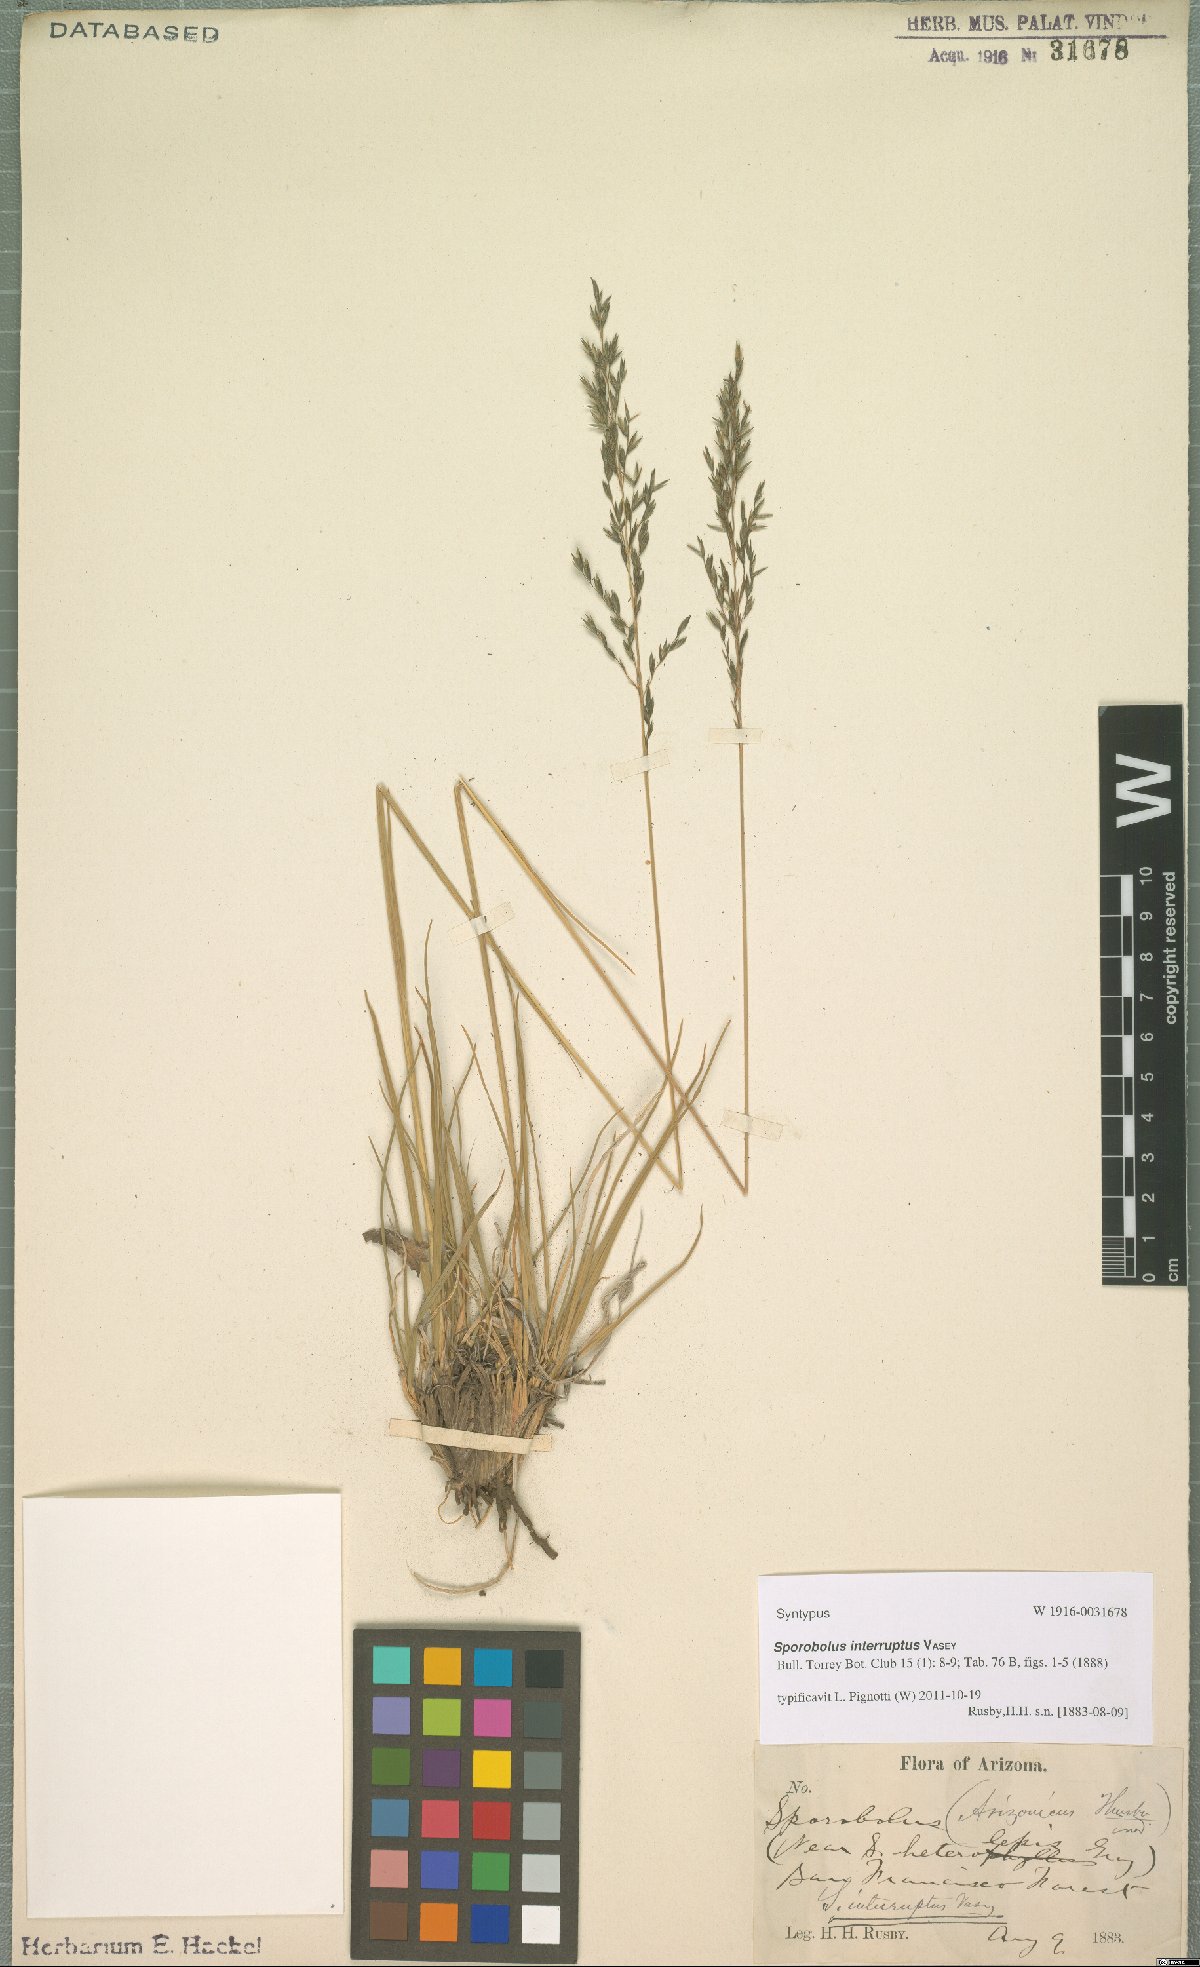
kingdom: Plantae
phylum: Tracheophyta
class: Liliopsida
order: Poales
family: Poaceae
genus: Sporobolus
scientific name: Sporobolus interruptus
